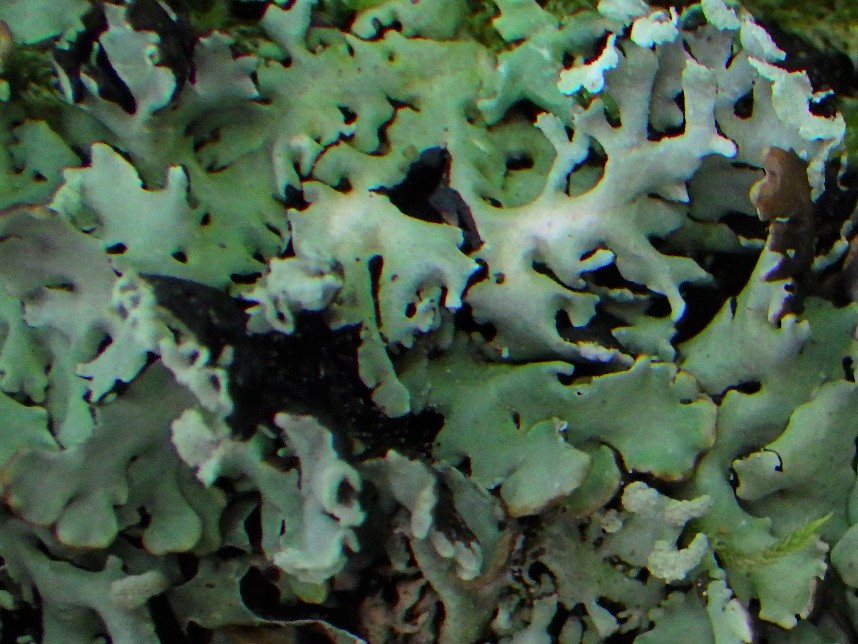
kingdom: Fungi
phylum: Ascomycota
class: Lecanoromycetes
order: Lecanorales
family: Parmeliaceae
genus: Hypogymnia
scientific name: Hypogymnia physodes
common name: almindelig kvistlav
